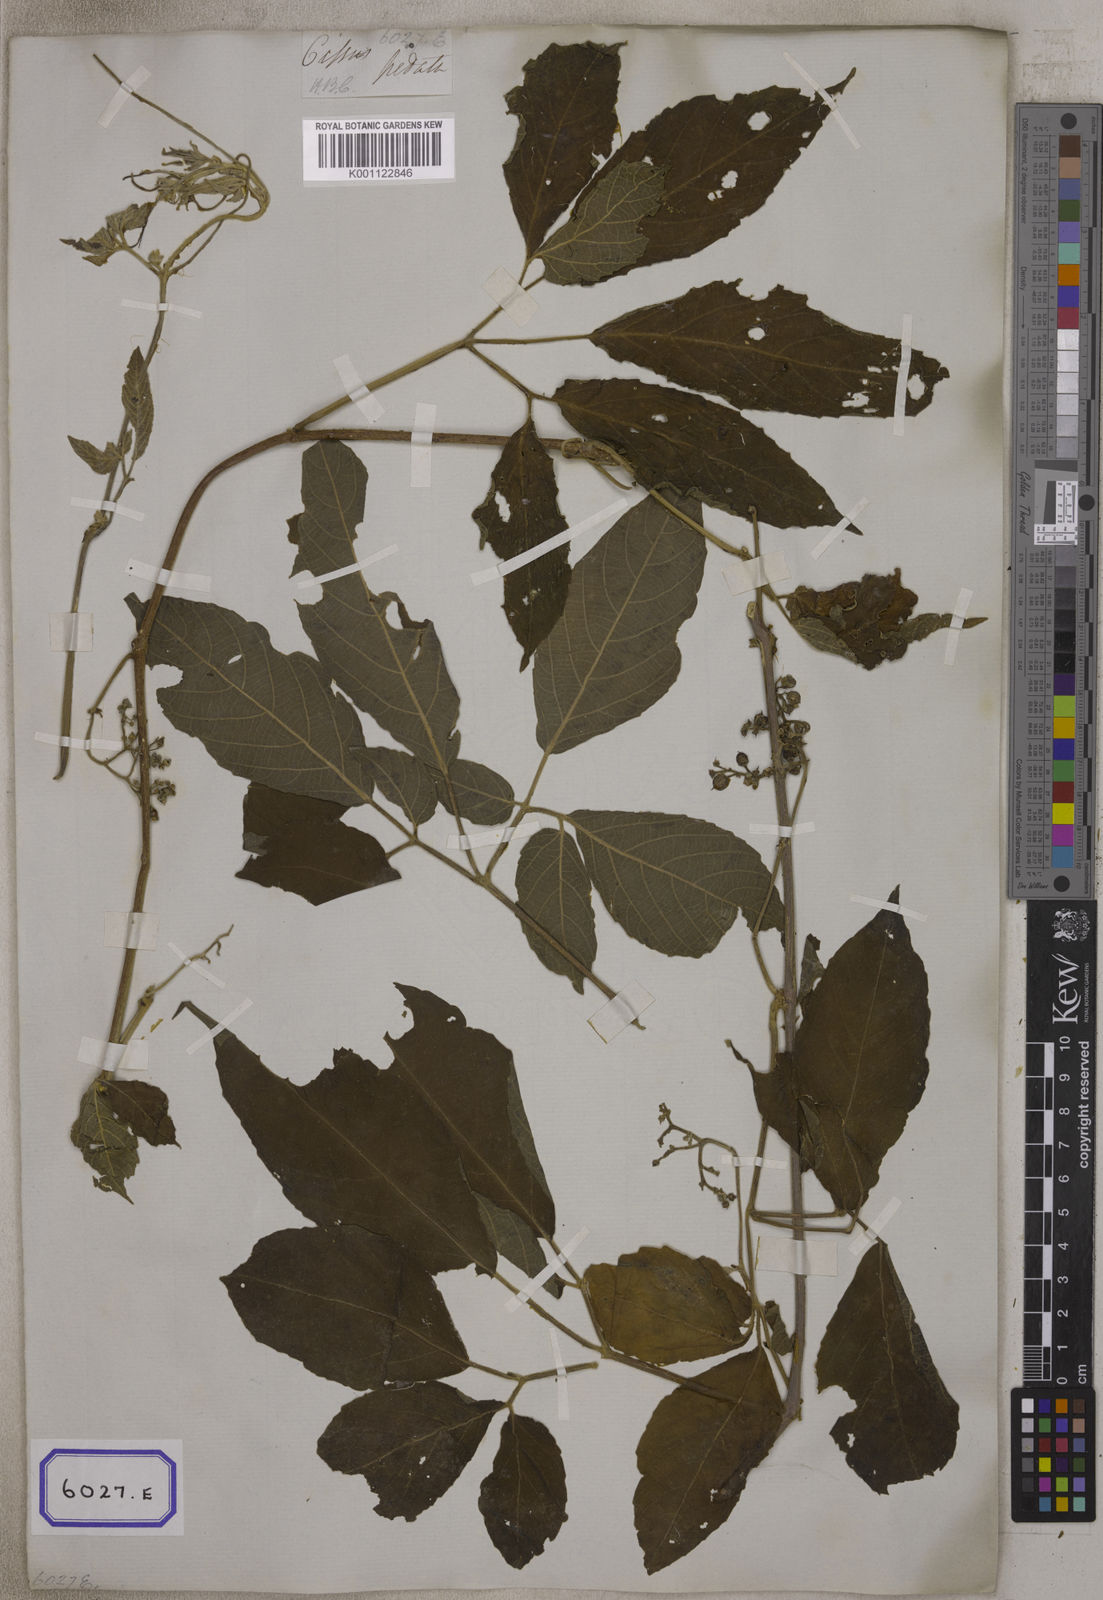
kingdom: Plantae
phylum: Tracheophyta
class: Magnoliopsida
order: Vitales
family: Vitaceae
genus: Cayratia
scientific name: Cayratia pedata
